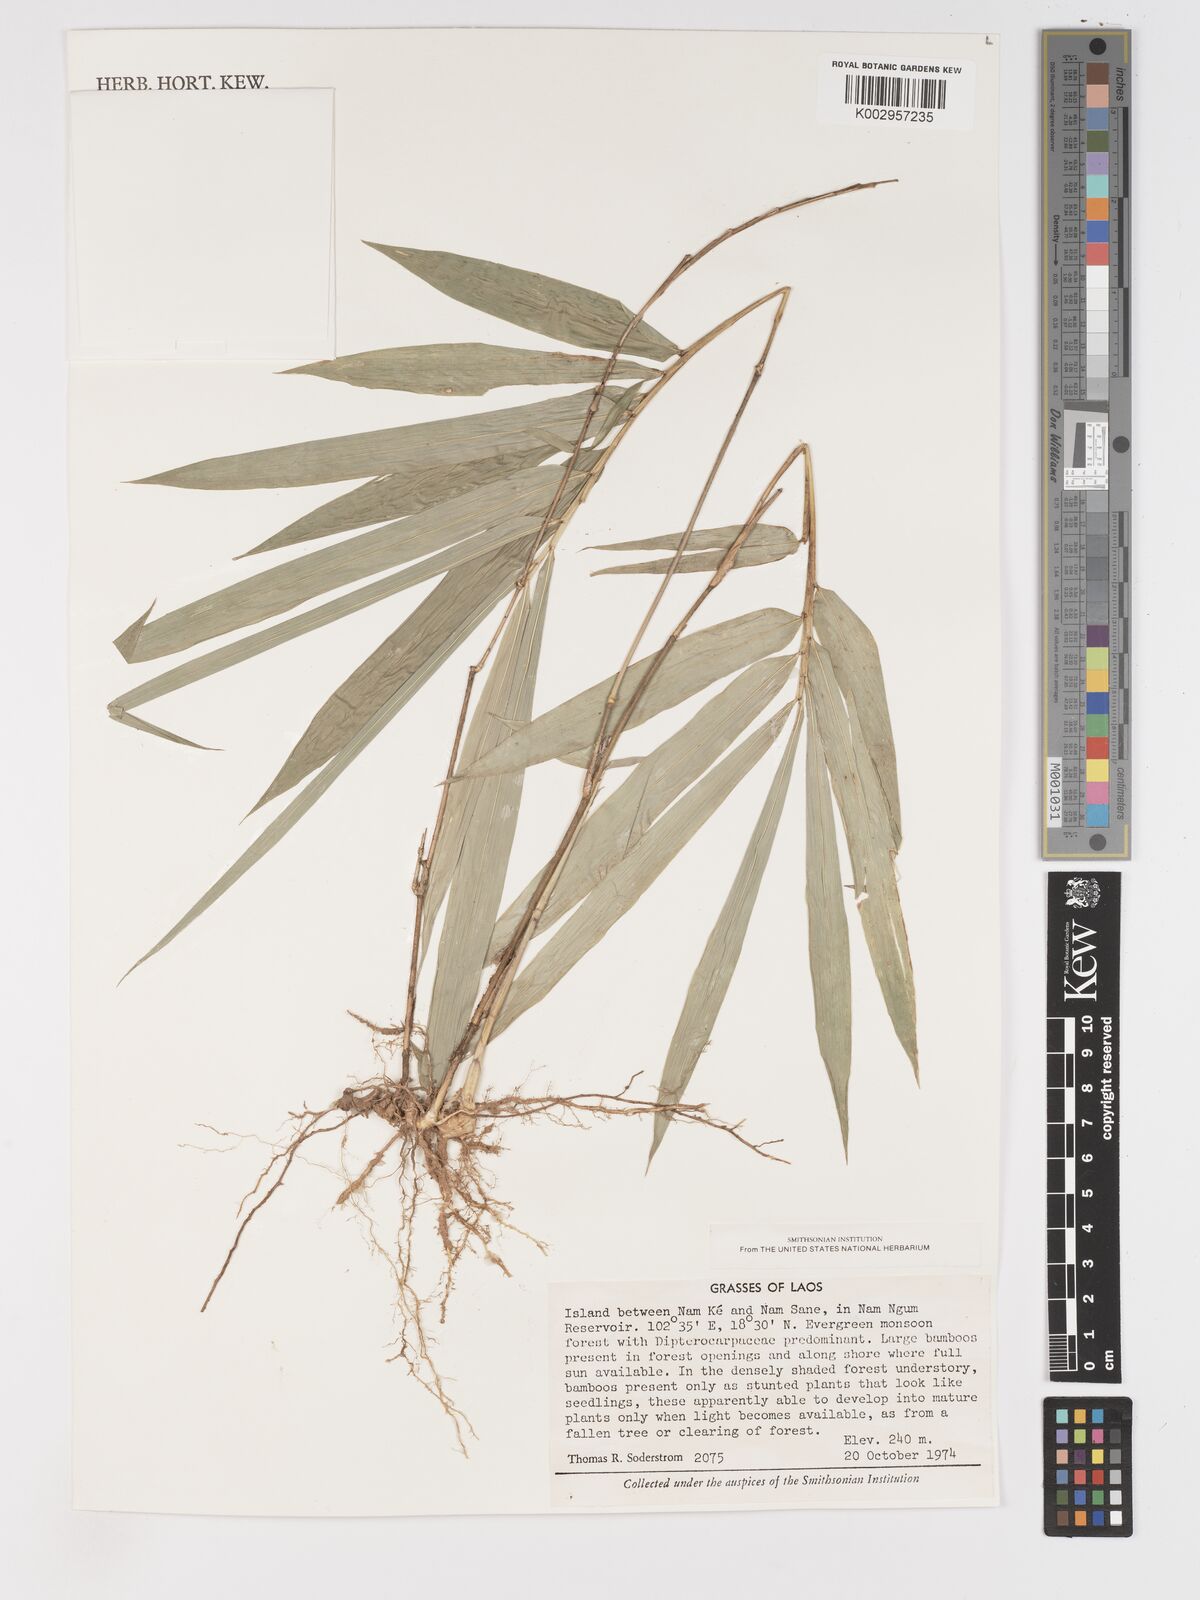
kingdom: Plantae
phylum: Tracheophyta
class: Liliopsida
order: Poales
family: Poaceae
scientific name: Poaceae
